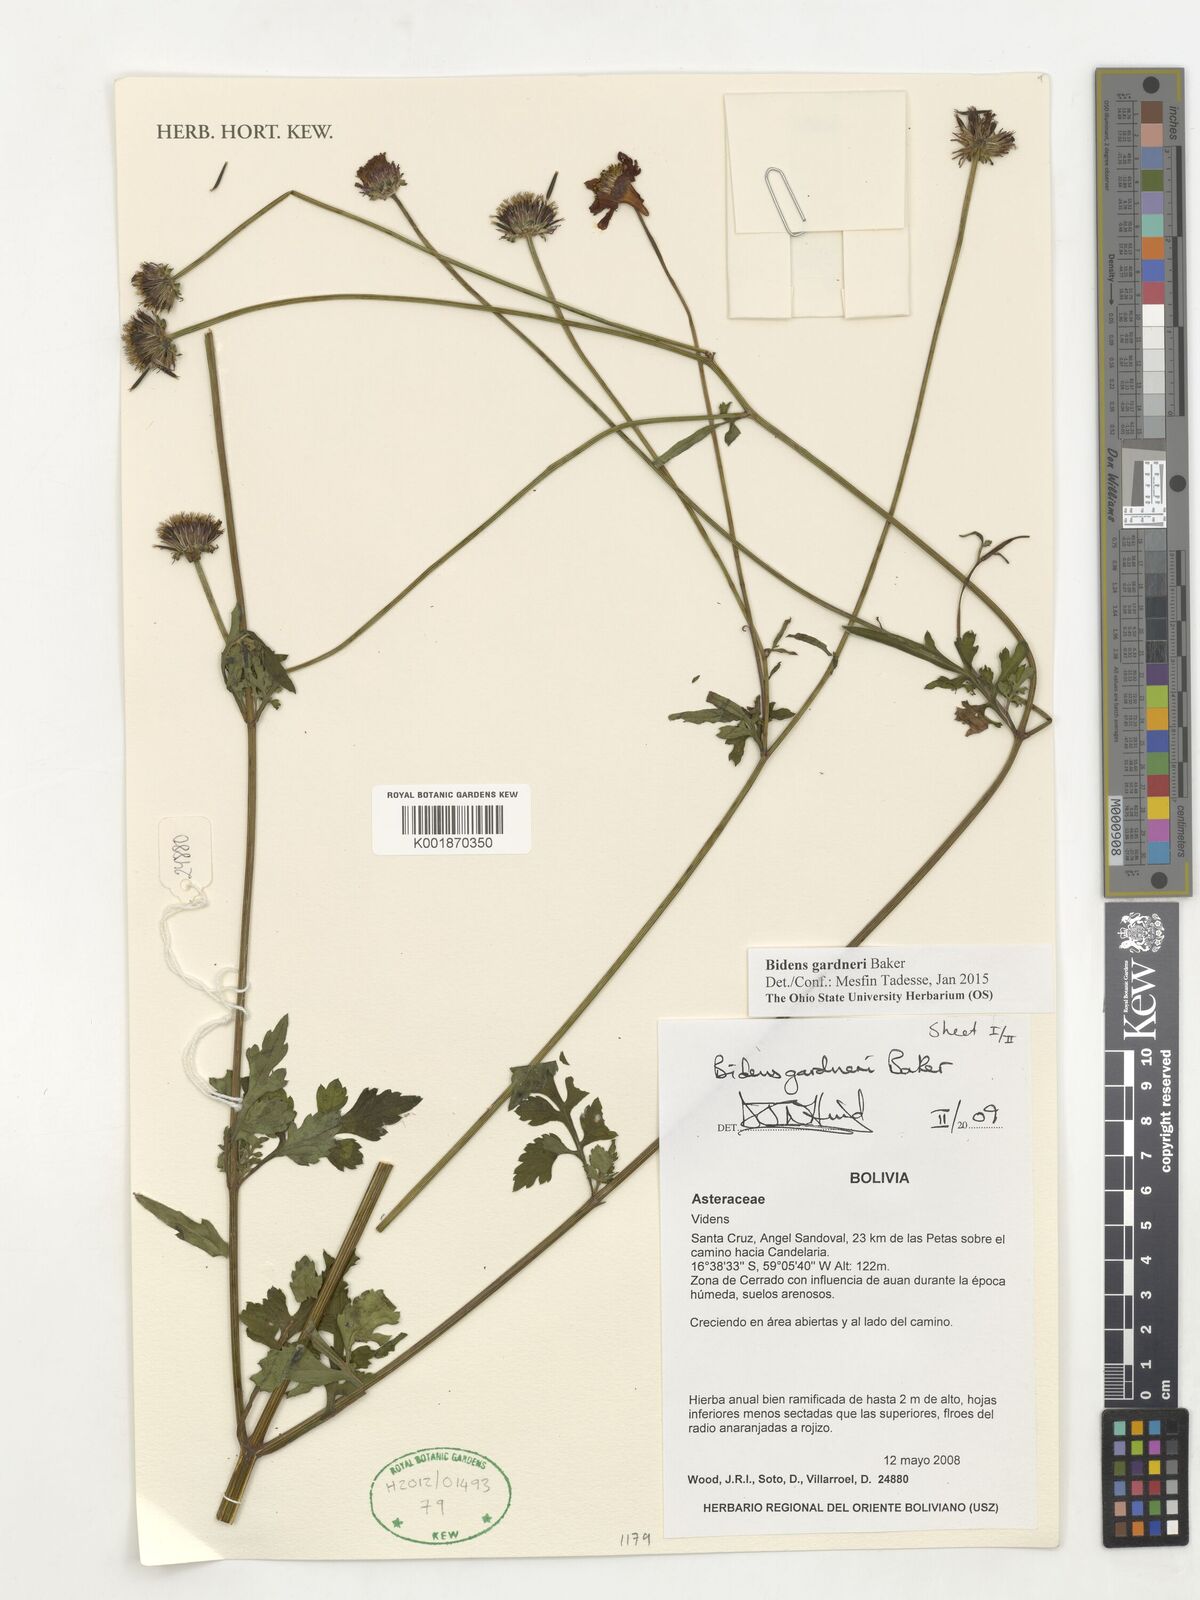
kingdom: Plantae
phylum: Tracheophyta
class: Magnoliopsida
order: Asterales
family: Asteraceae
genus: Bidens
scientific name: Bidens gardneri
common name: Ridge beggartick
